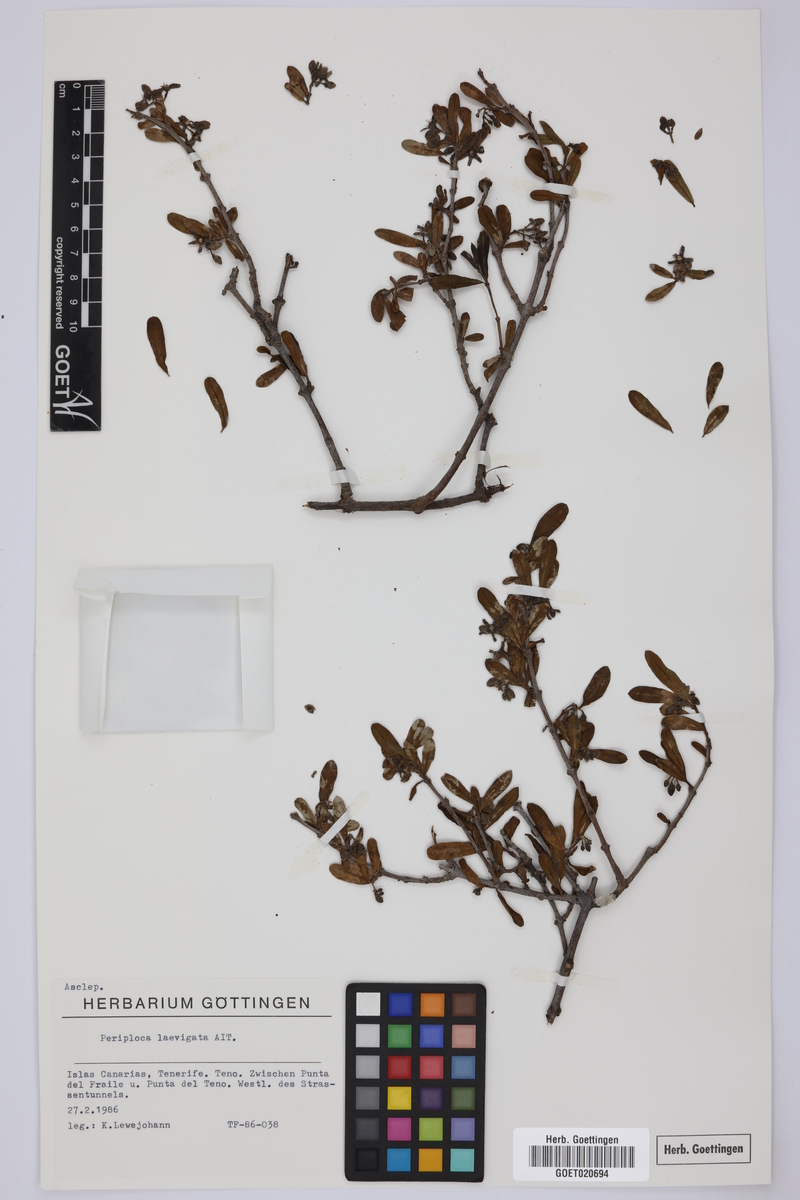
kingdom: Plantae
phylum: Tracheophyta
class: Magnoliopsida
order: Gentianales
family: Apocynaceae
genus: Periploca
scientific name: Periploca laevigata
